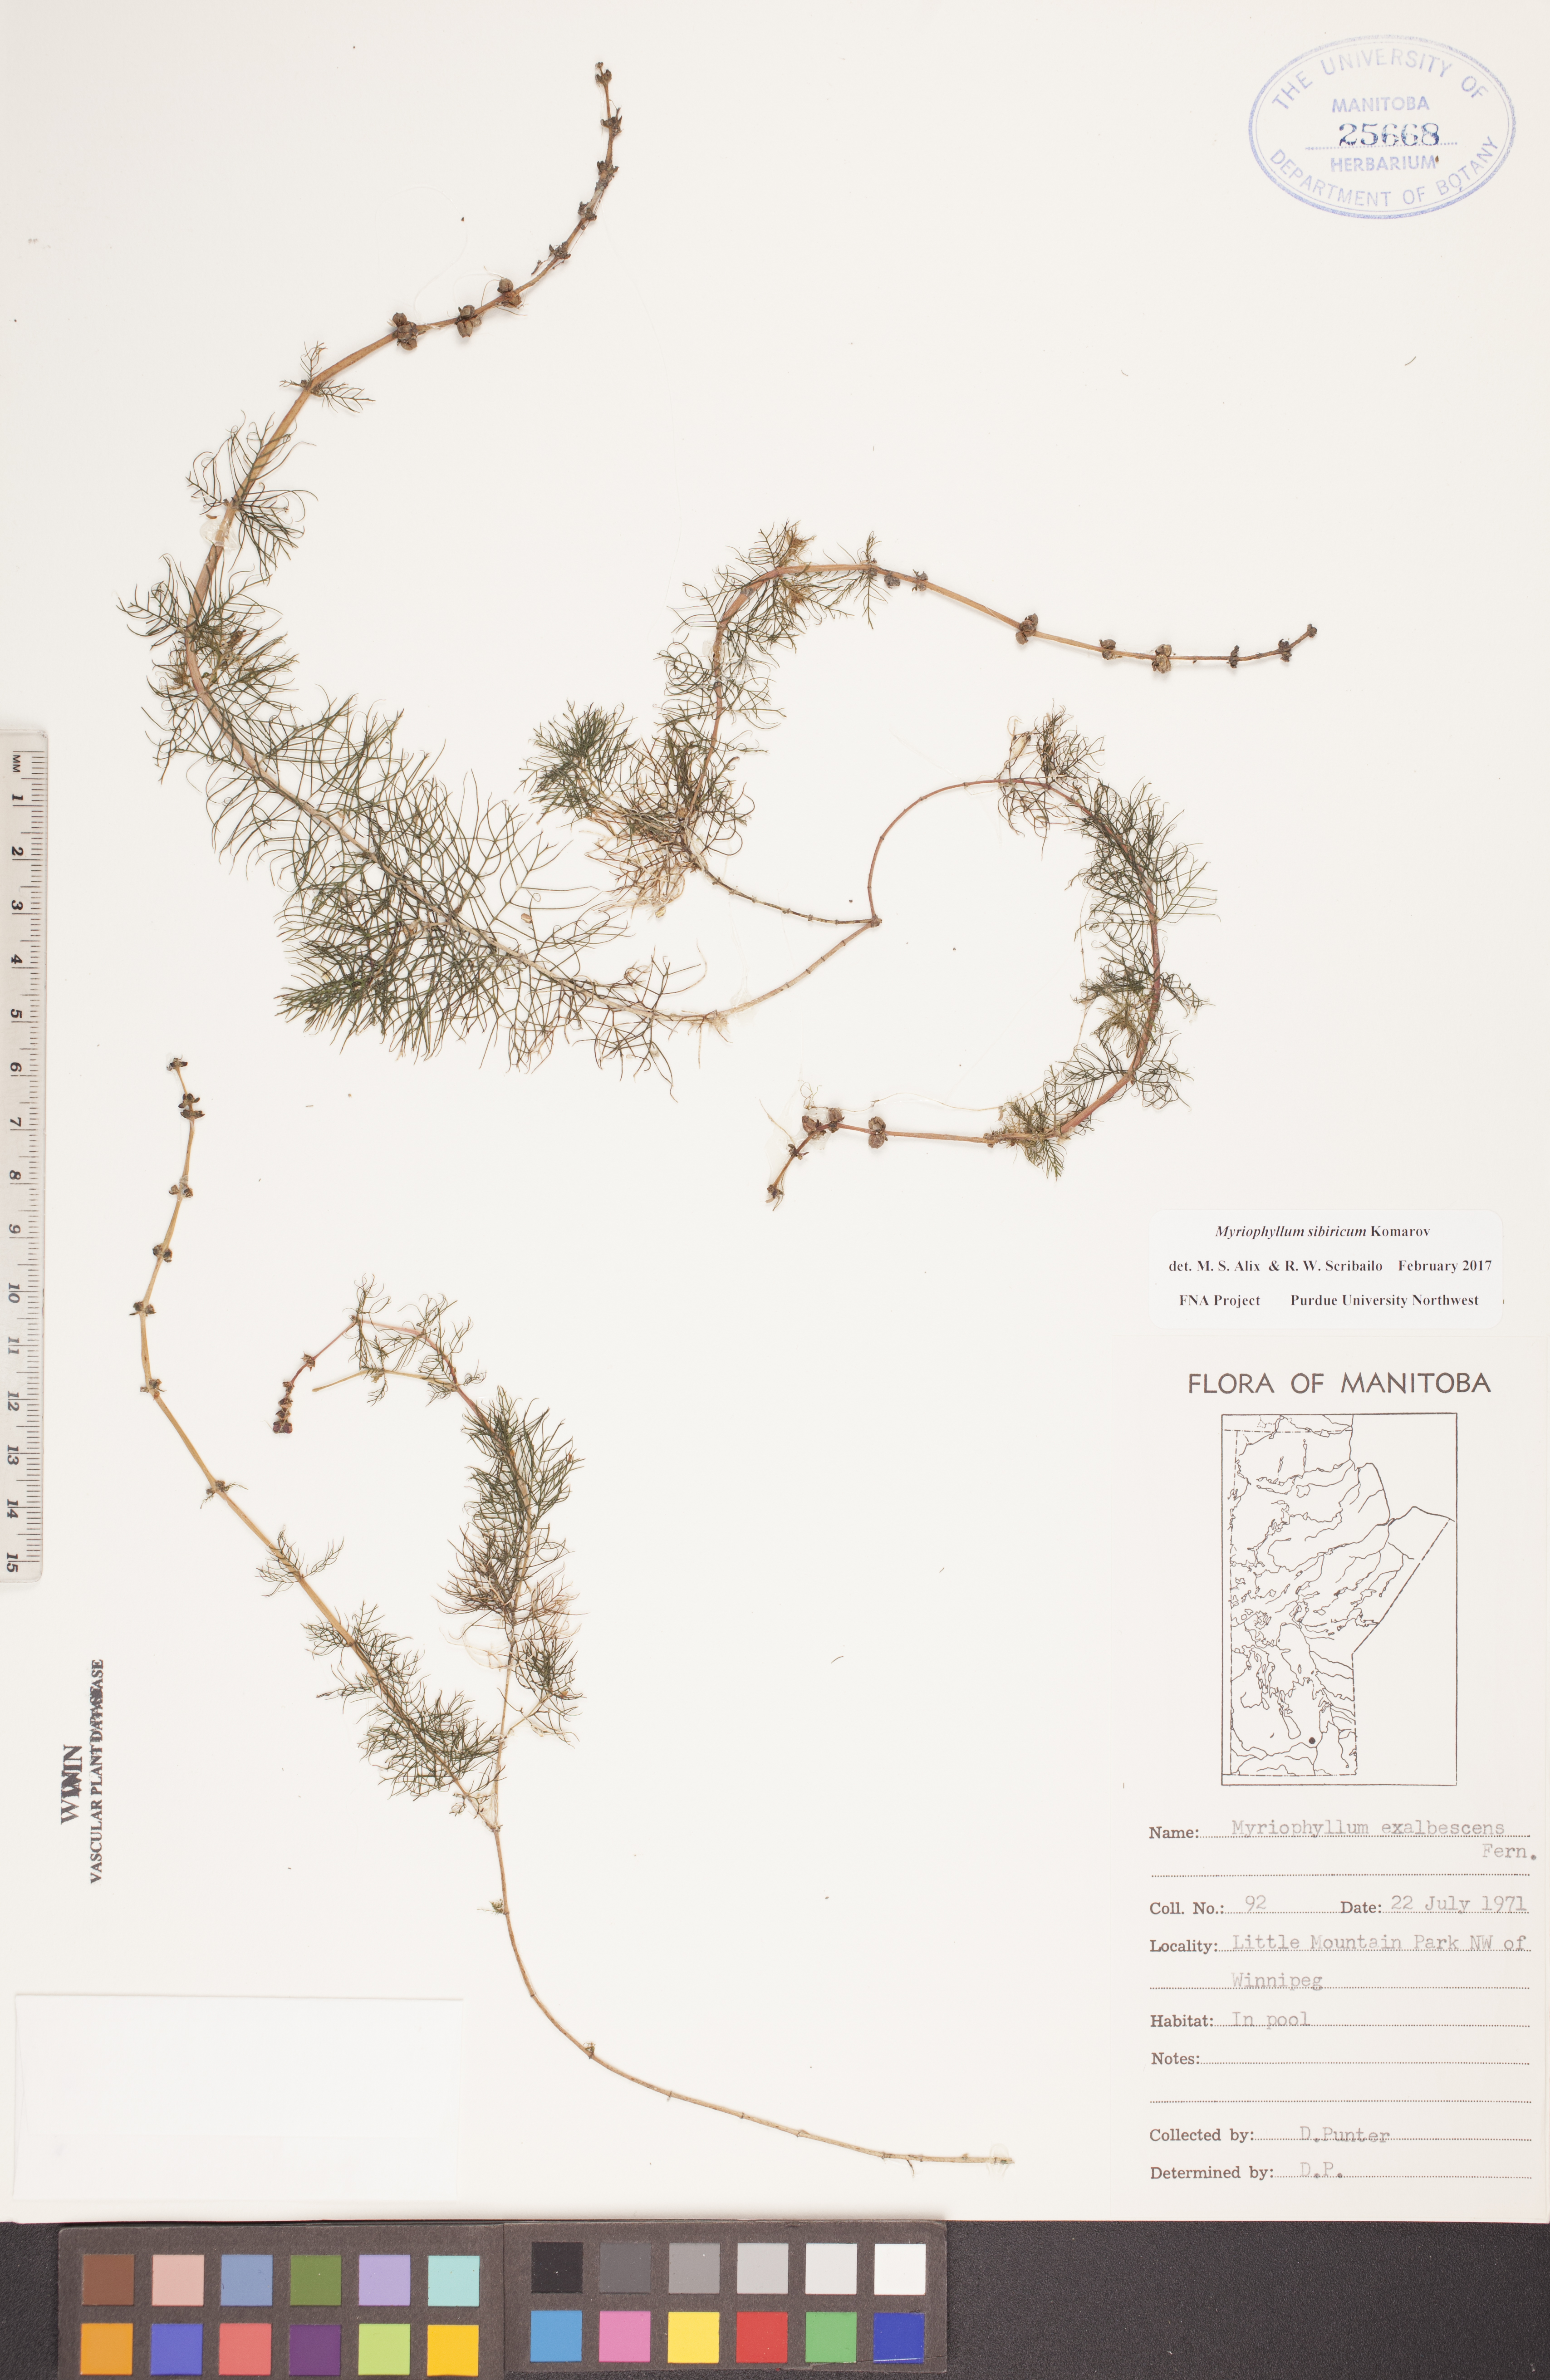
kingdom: Plantae
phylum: Tracheophyta
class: Magnoliopsida
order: Saxifragales
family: Haloragaceae
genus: Myriophyllum
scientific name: Myriophyllum sibiricum
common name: Siberian water-milfoil
